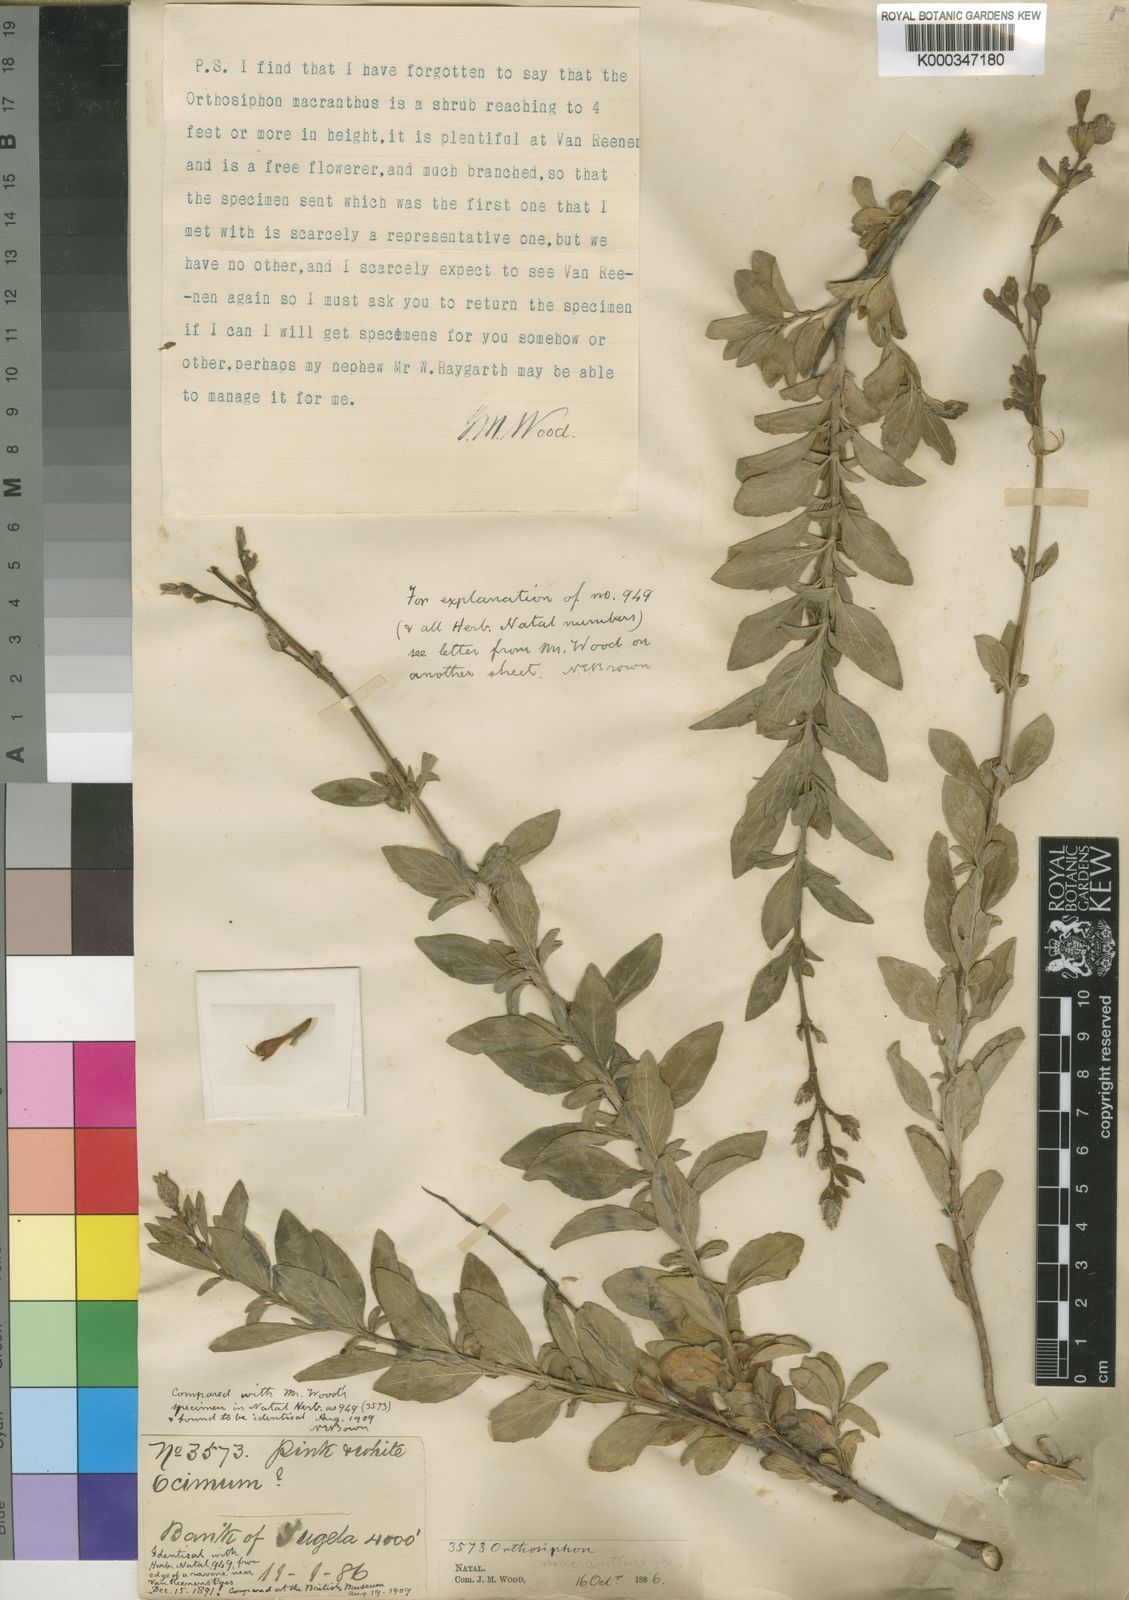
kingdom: Plantae
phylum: Tracheophyta
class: Magnoliopsida
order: Lamiales
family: Lamiaceae
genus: Syncolostemon
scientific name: Syncolostemon
